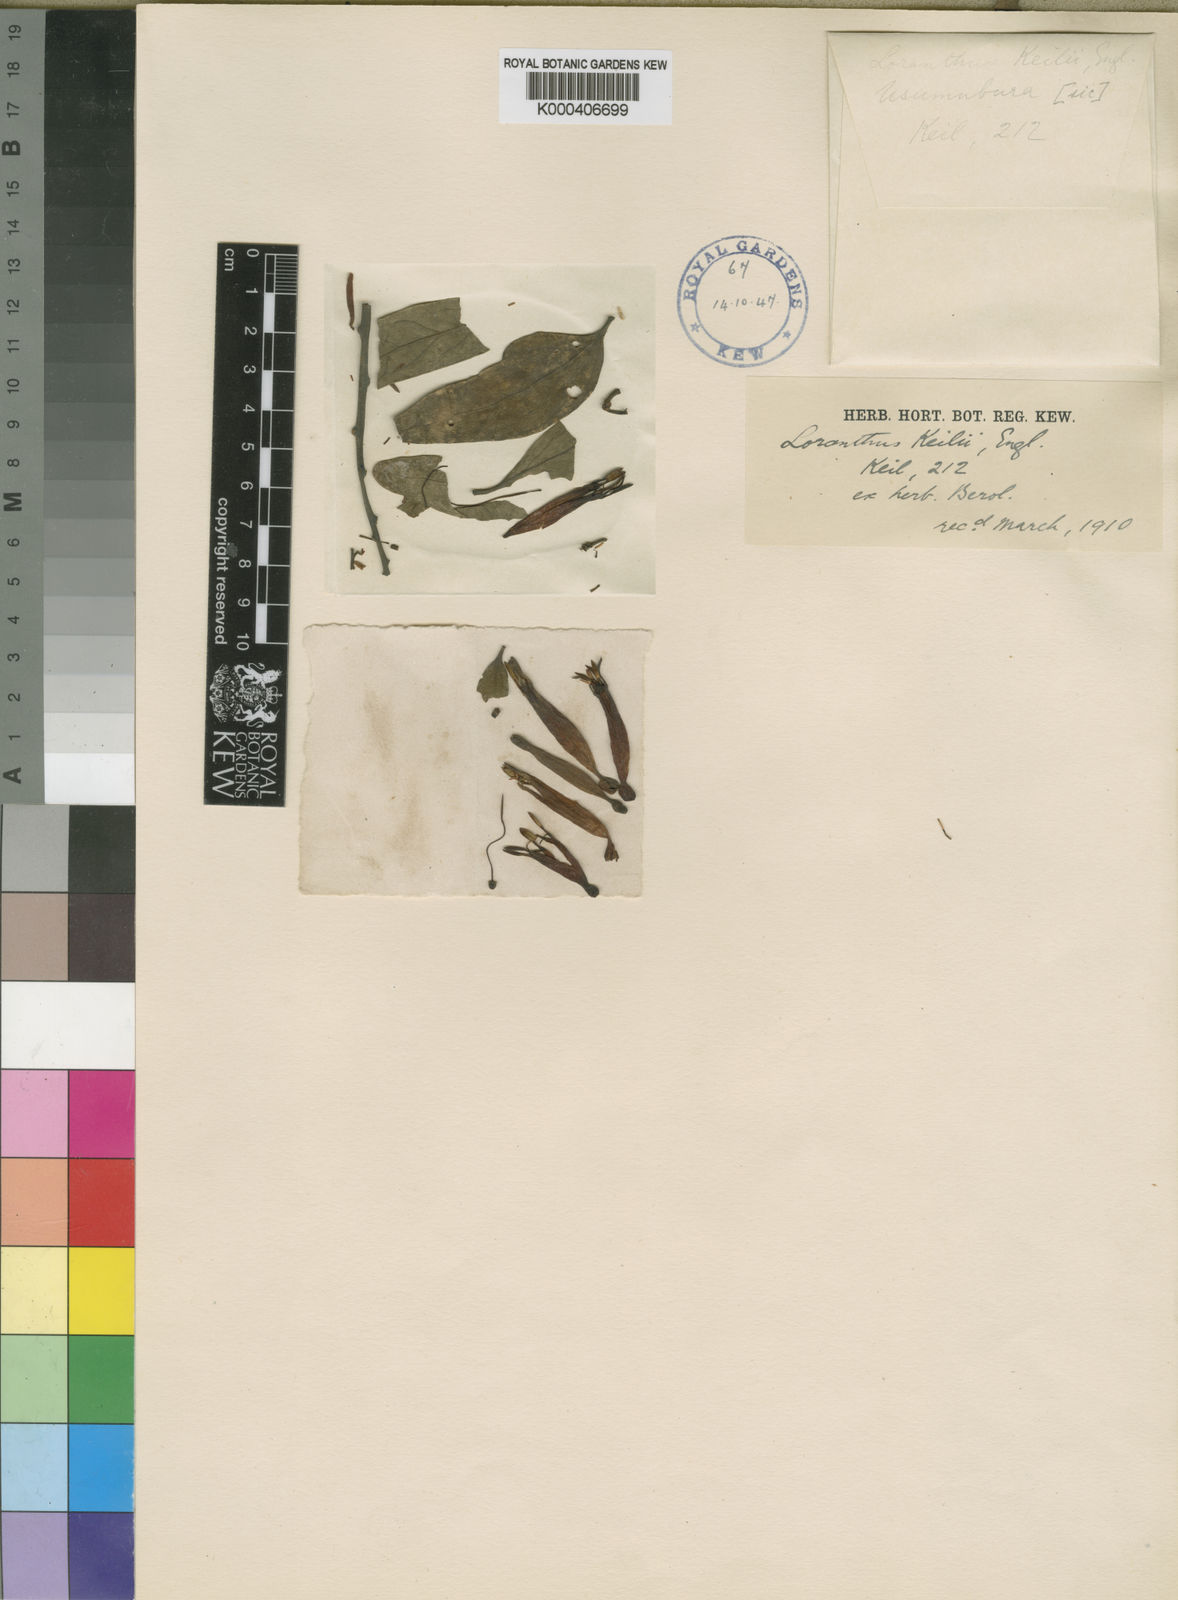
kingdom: Plantae
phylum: Tracheophyta
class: Magnoliopsida
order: Santalales
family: Loranthaceae
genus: Agelanthus
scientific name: Agelanthus keilii
